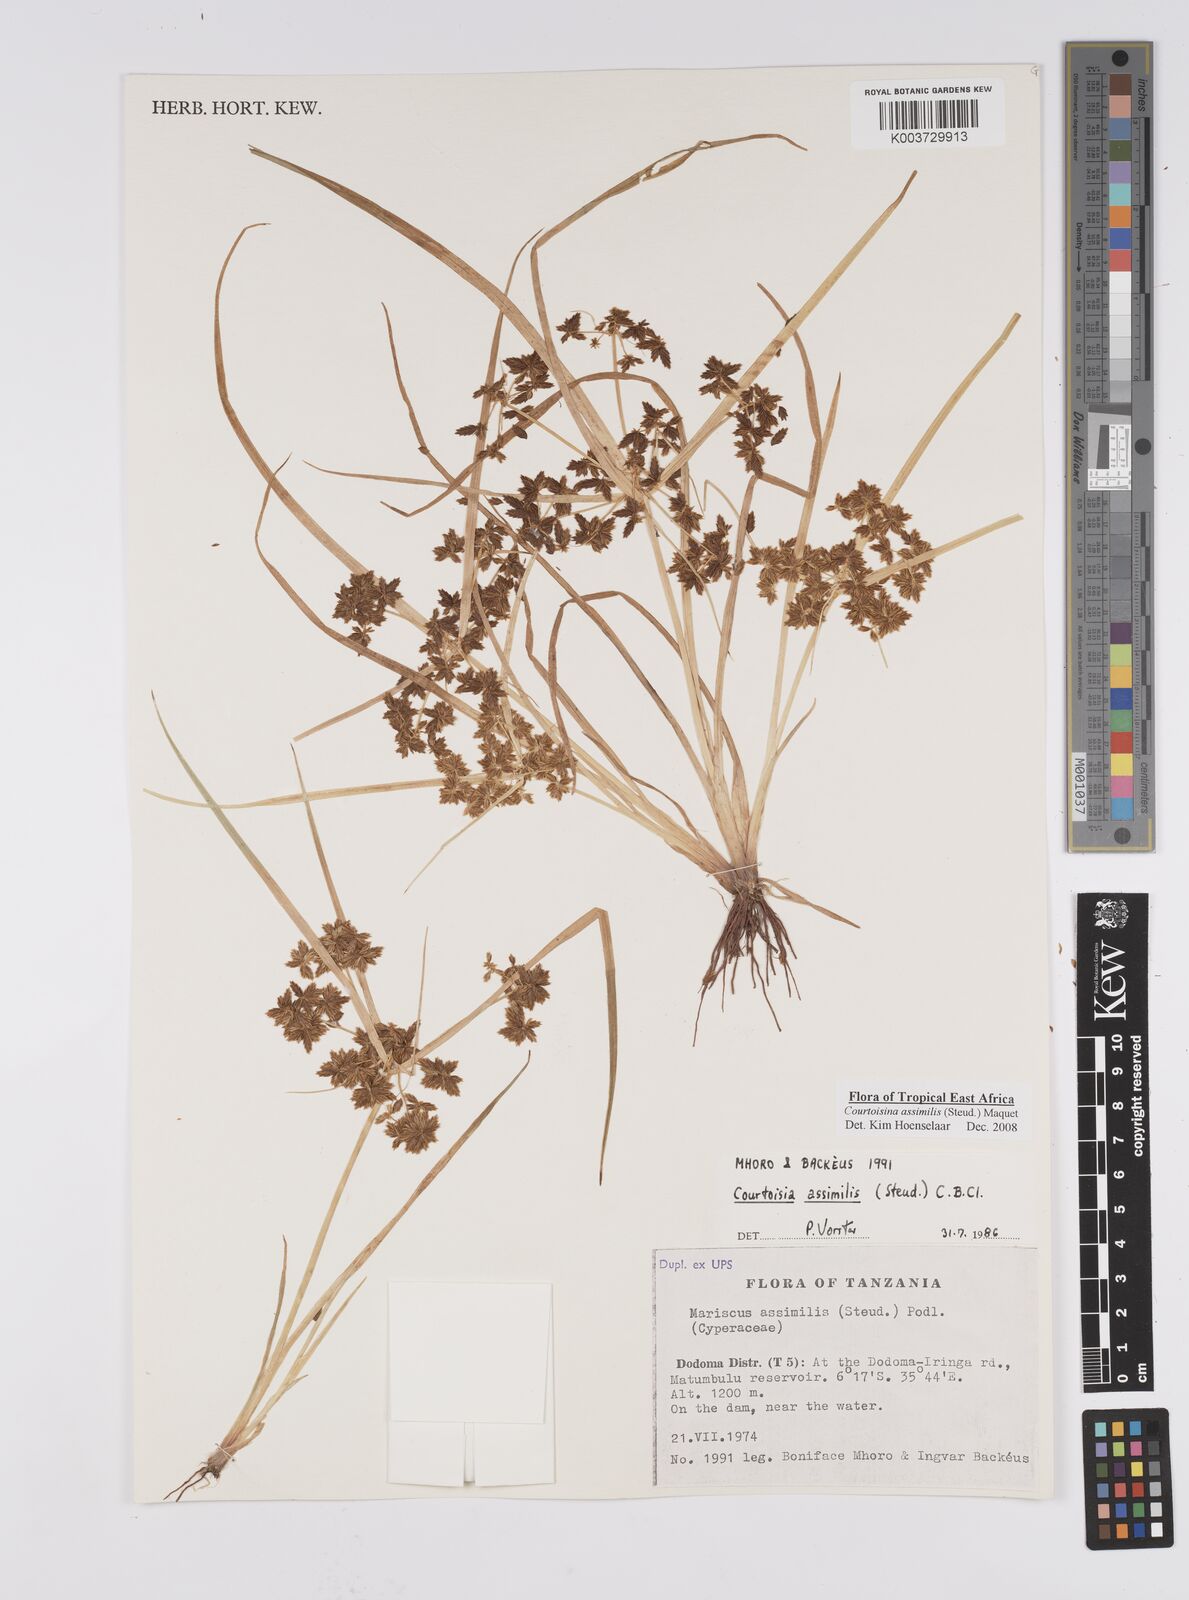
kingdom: Plantae
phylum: Tracheophyta
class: Liliopsida
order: Poales
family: Cyperaceae
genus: Cyperus
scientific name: Cyperus assimilis
